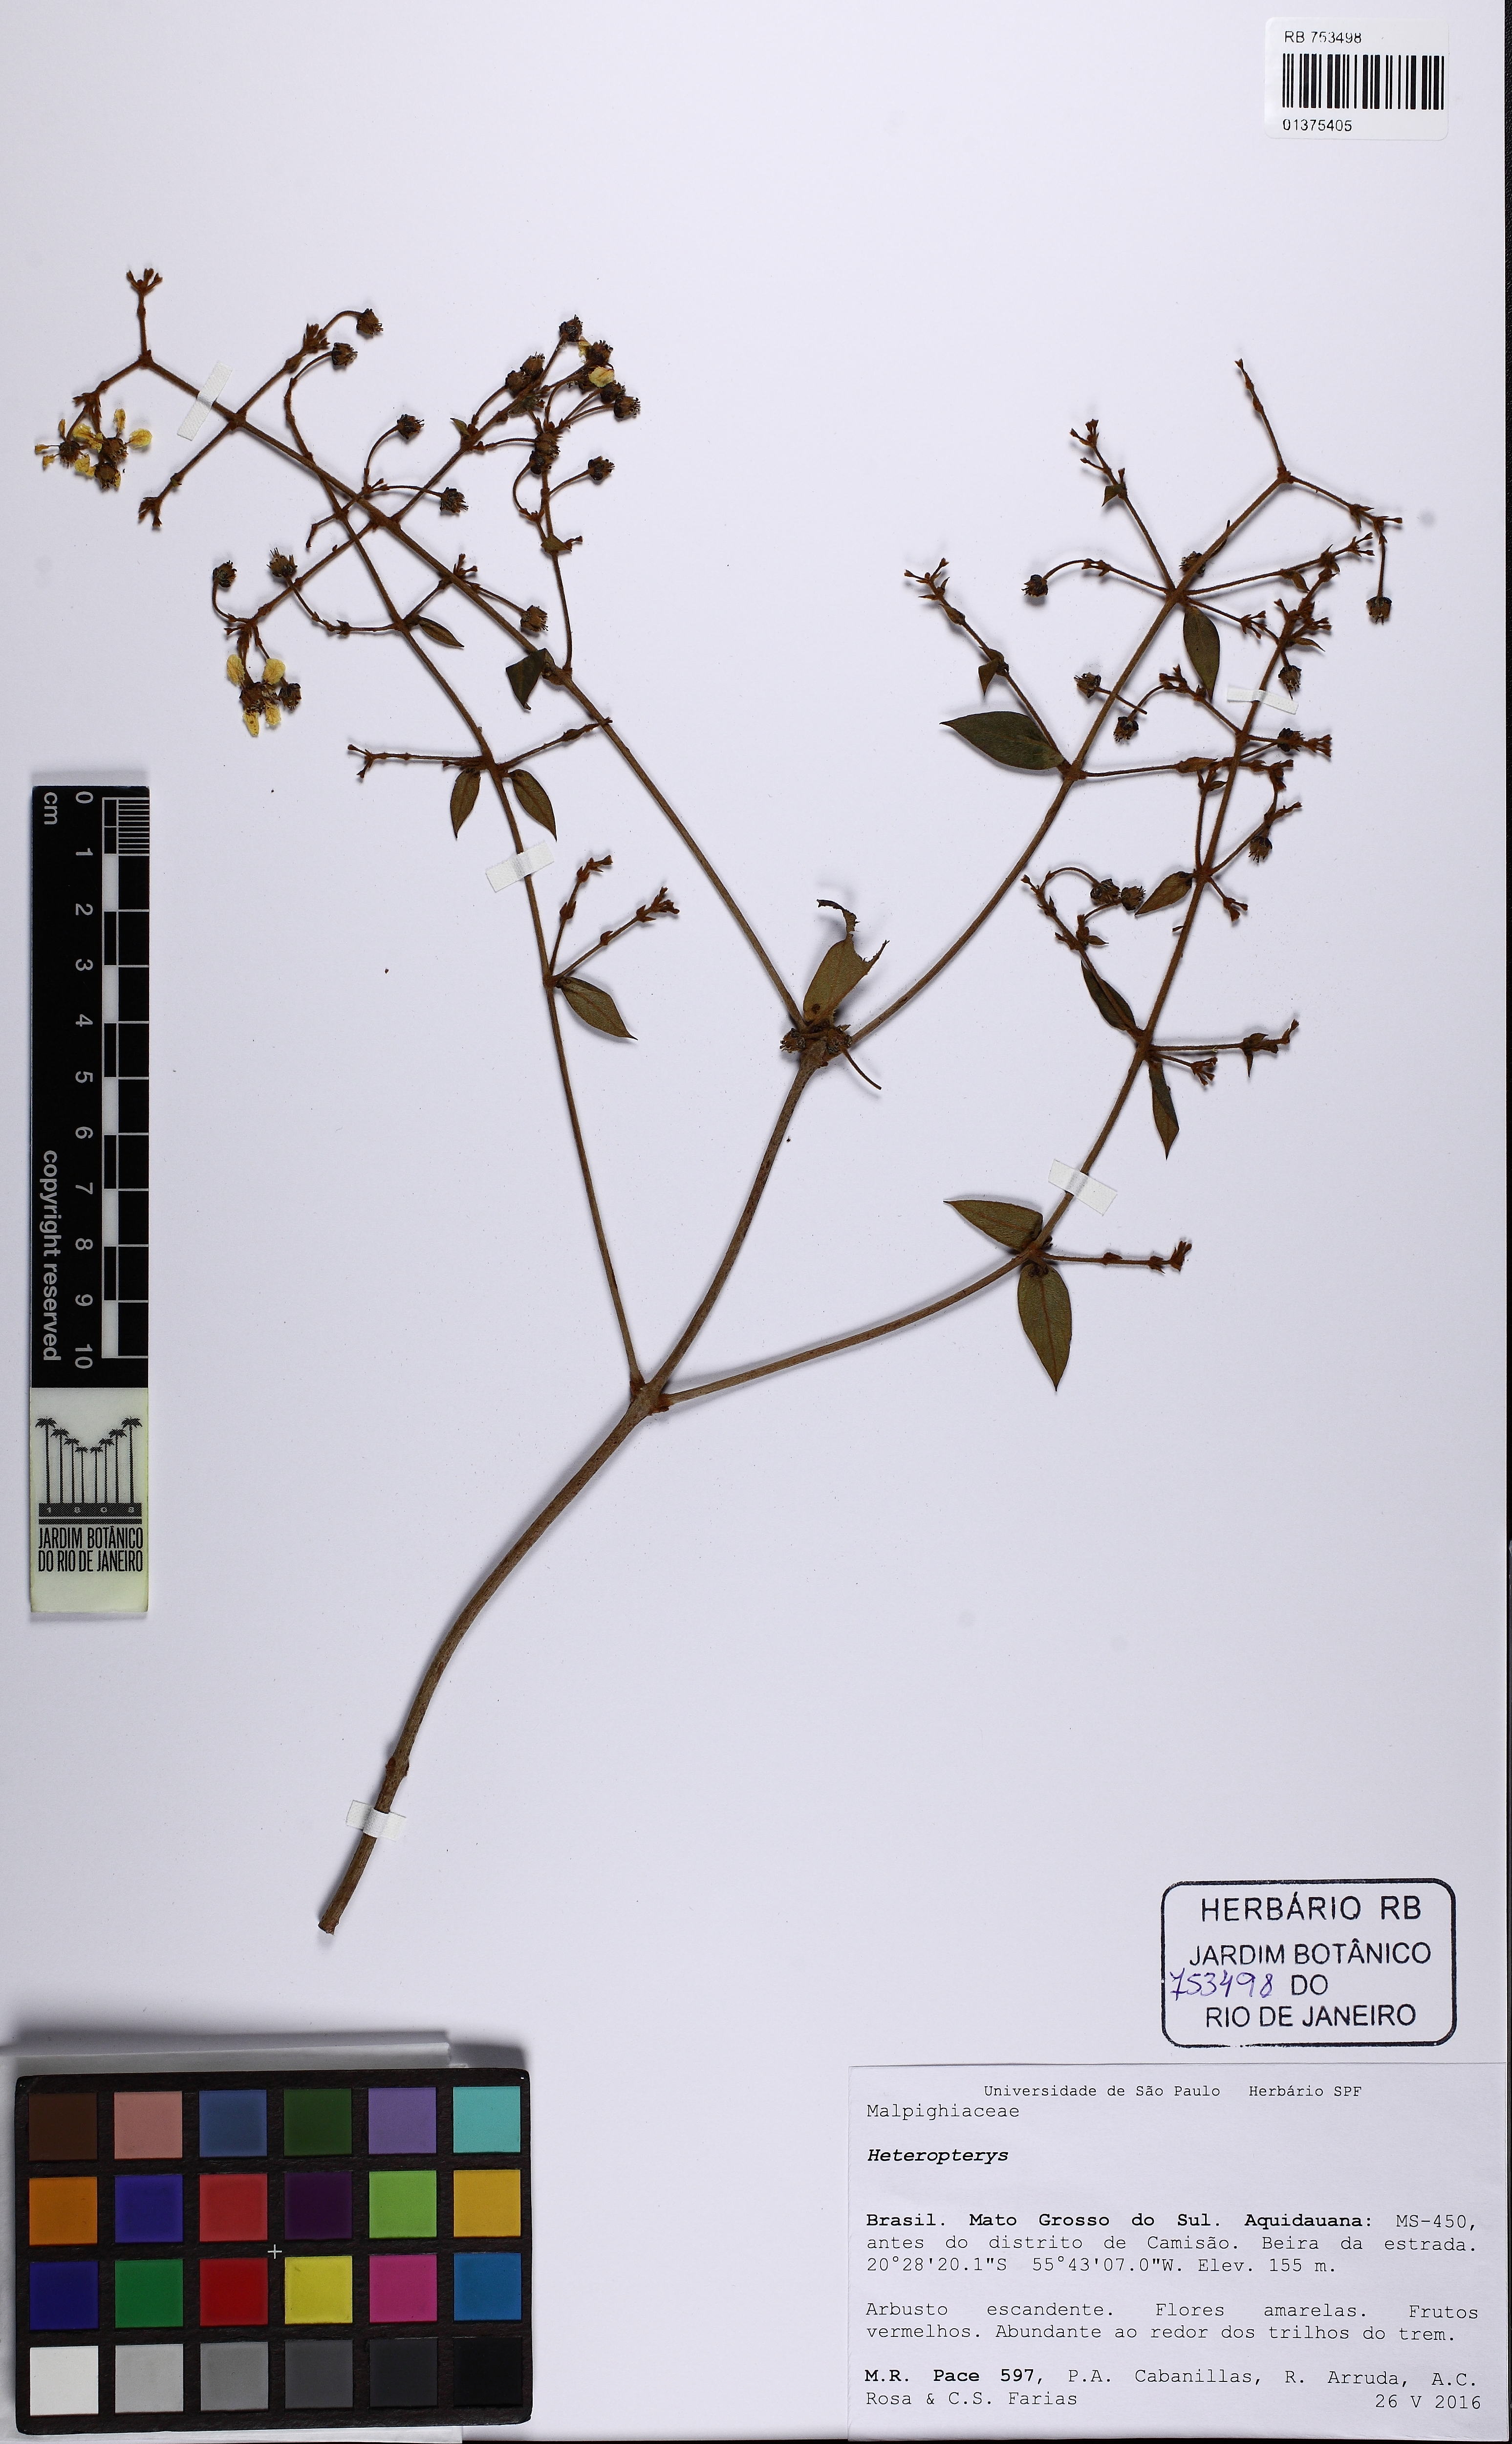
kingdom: Plantae
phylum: Tracheophyta
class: Magnoliopsida
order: Malpighiales
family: Malpighiaceae
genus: Heteropterys
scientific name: Heteropterys
